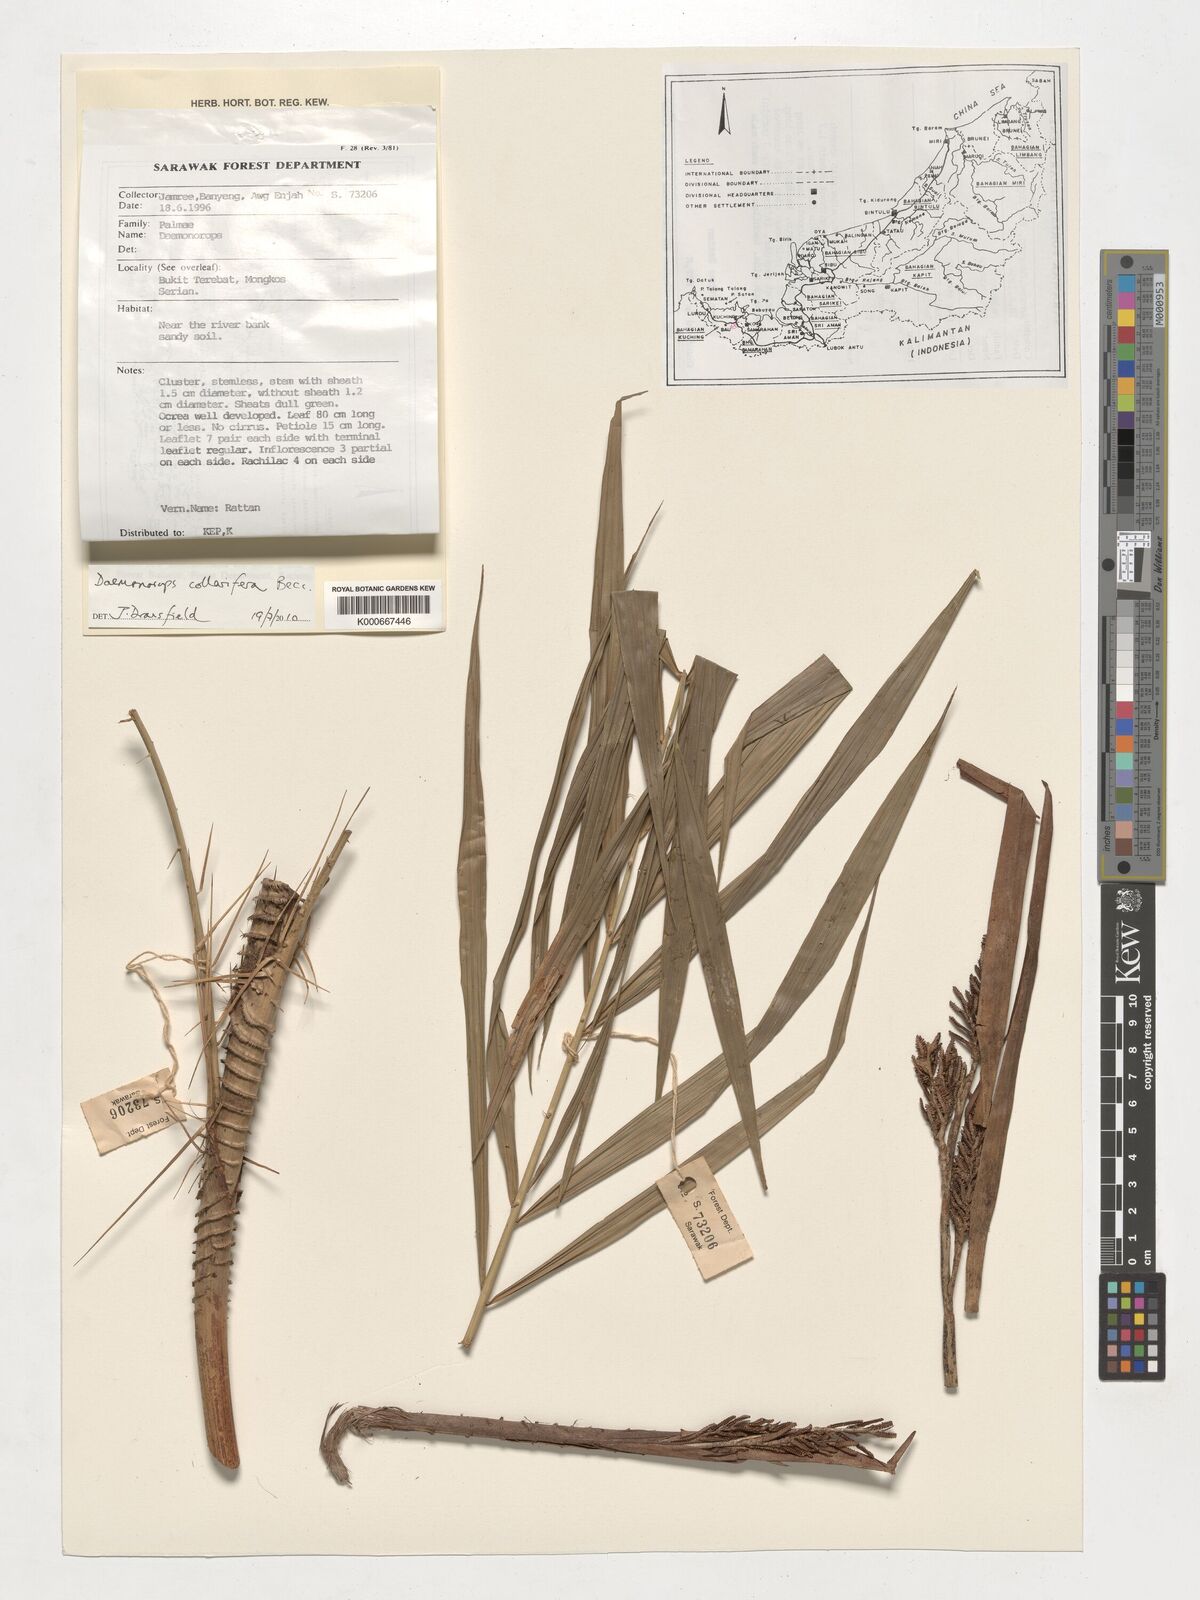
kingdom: Plantae
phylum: Tracheophyta
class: Liliopsida
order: Arecales
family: Arecaceae
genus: Calamus
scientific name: Calamus geniculatus
